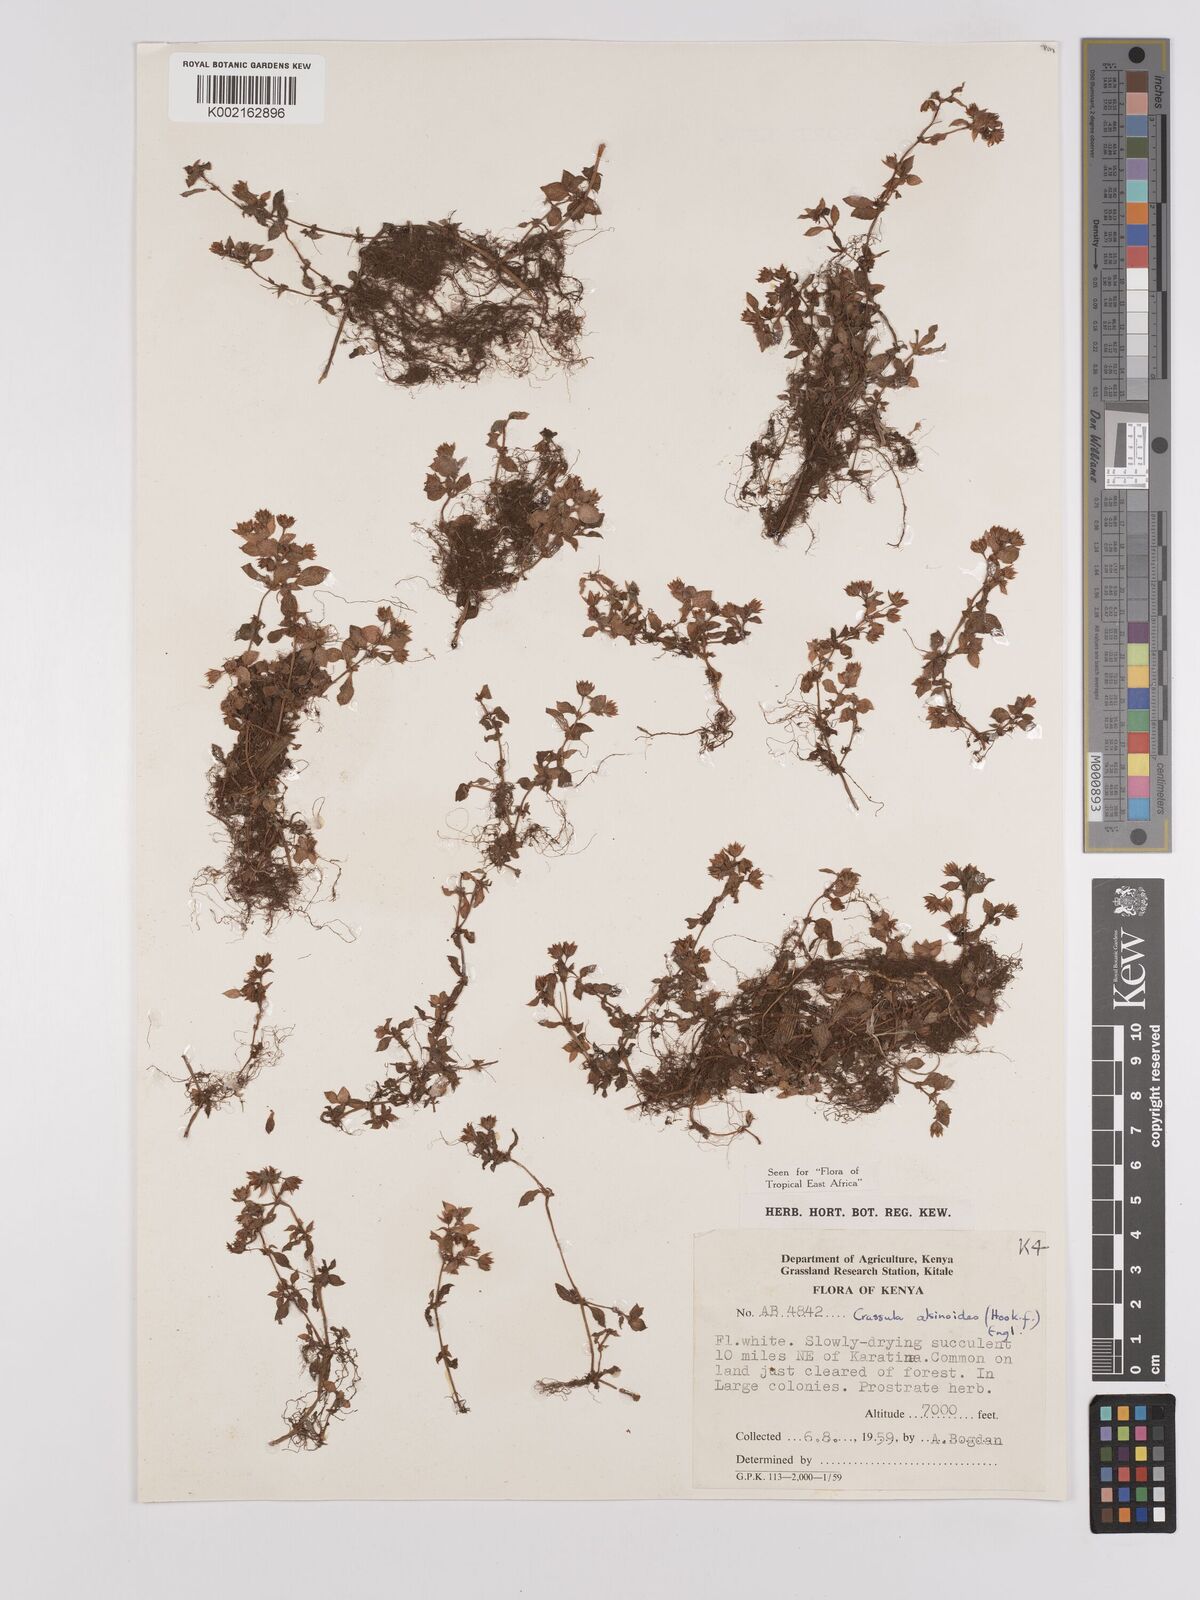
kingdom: Plantae
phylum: Tracheophyta
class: Magnoliopsida
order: Saxifragales
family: Crassulaceae
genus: Crassula
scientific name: Crassula alsinoides
